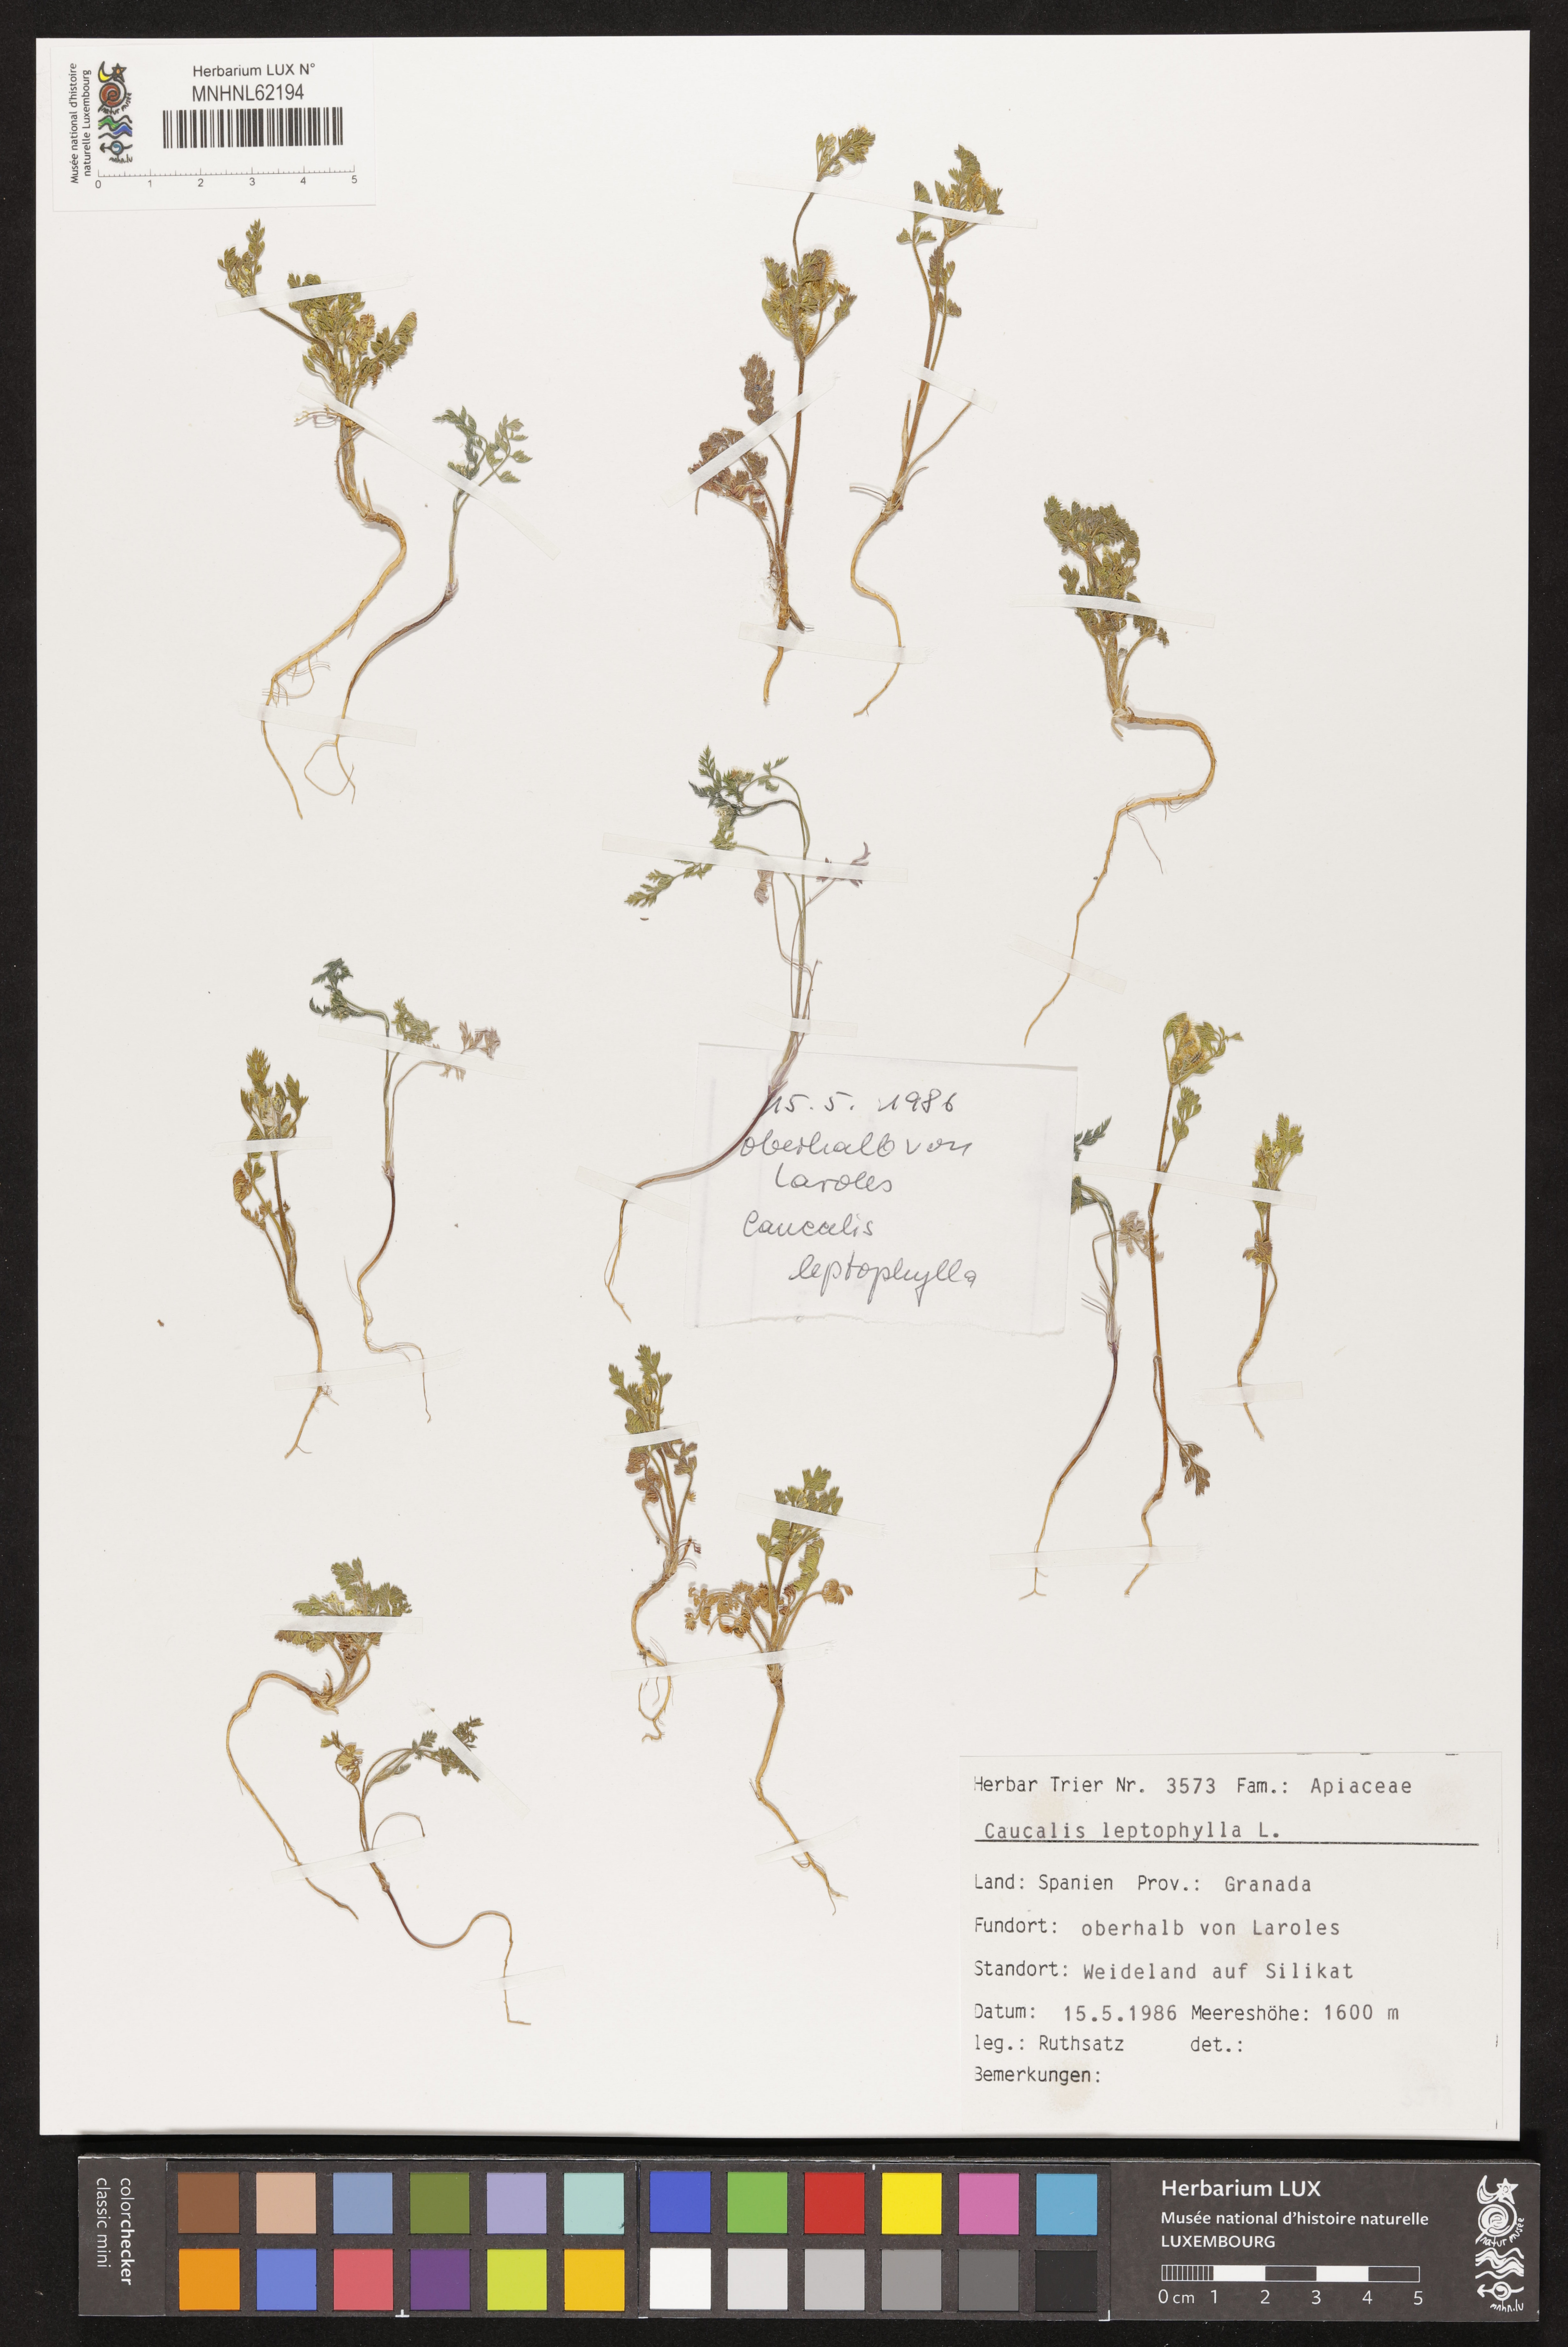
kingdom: Plantae
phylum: Tracheophyta
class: Magnoliopsida
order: Apiales
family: Apiaceae
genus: Torilis
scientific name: Torilis leptophylla
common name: Bristlefruit hedgeparsley
